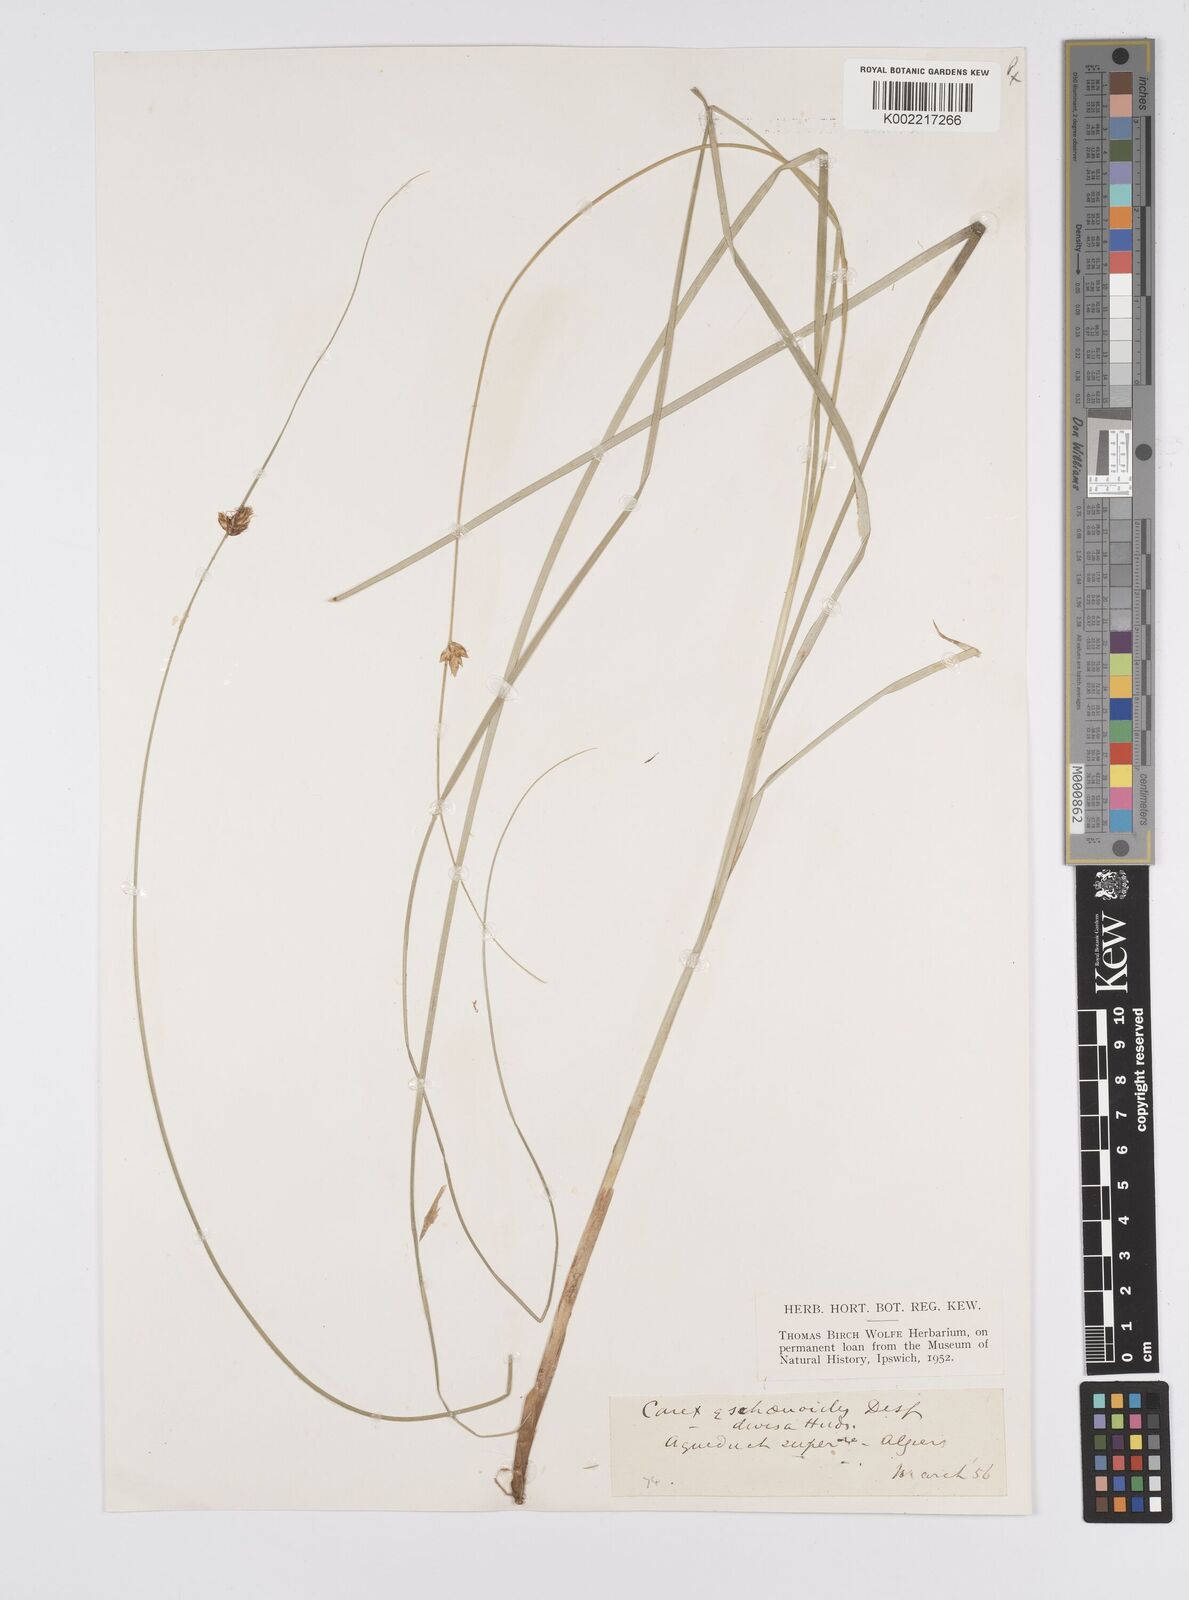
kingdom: Plantae
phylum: Tracheophyta
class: Liliopsida
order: Poales
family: Cyperaceae
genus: Carex
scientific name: Carex divisa
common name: Divided sedge
